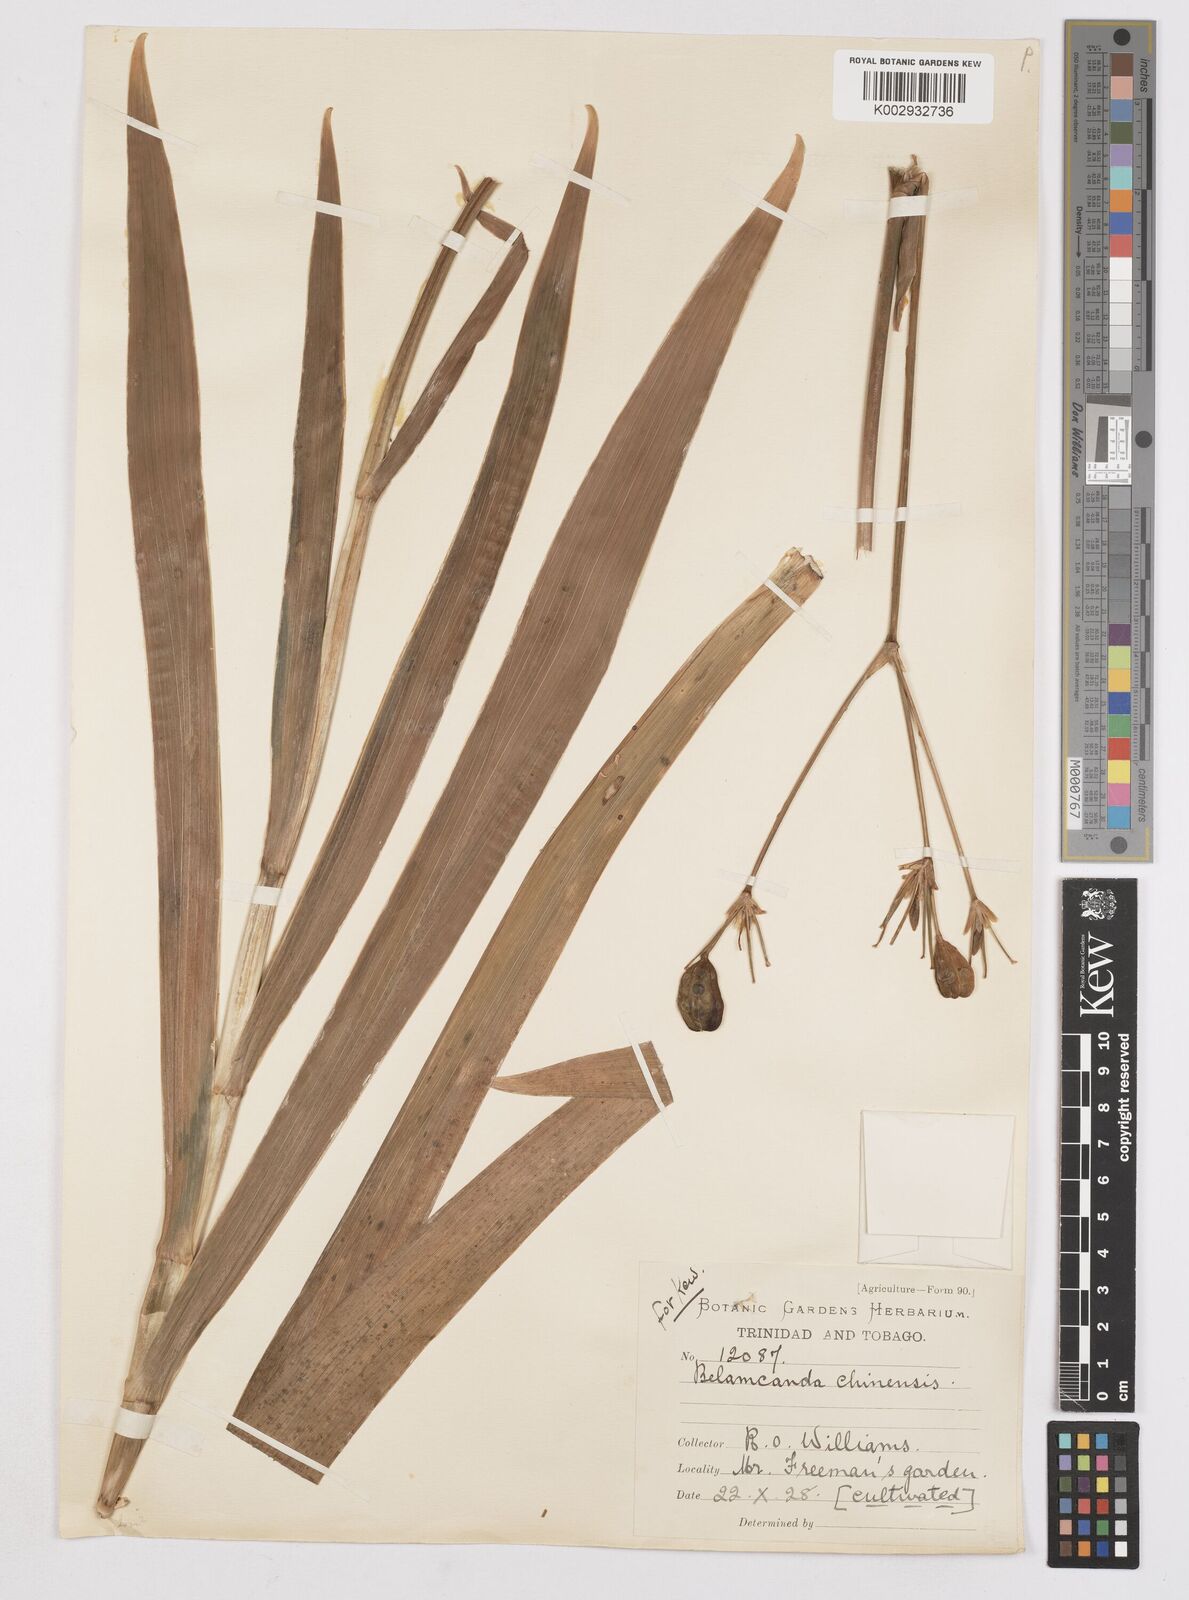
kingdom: Plantae
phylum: Tracheophyta
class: Liliopsida
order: Asparagales
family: Iridaceae
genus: Iris
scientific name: Iris
